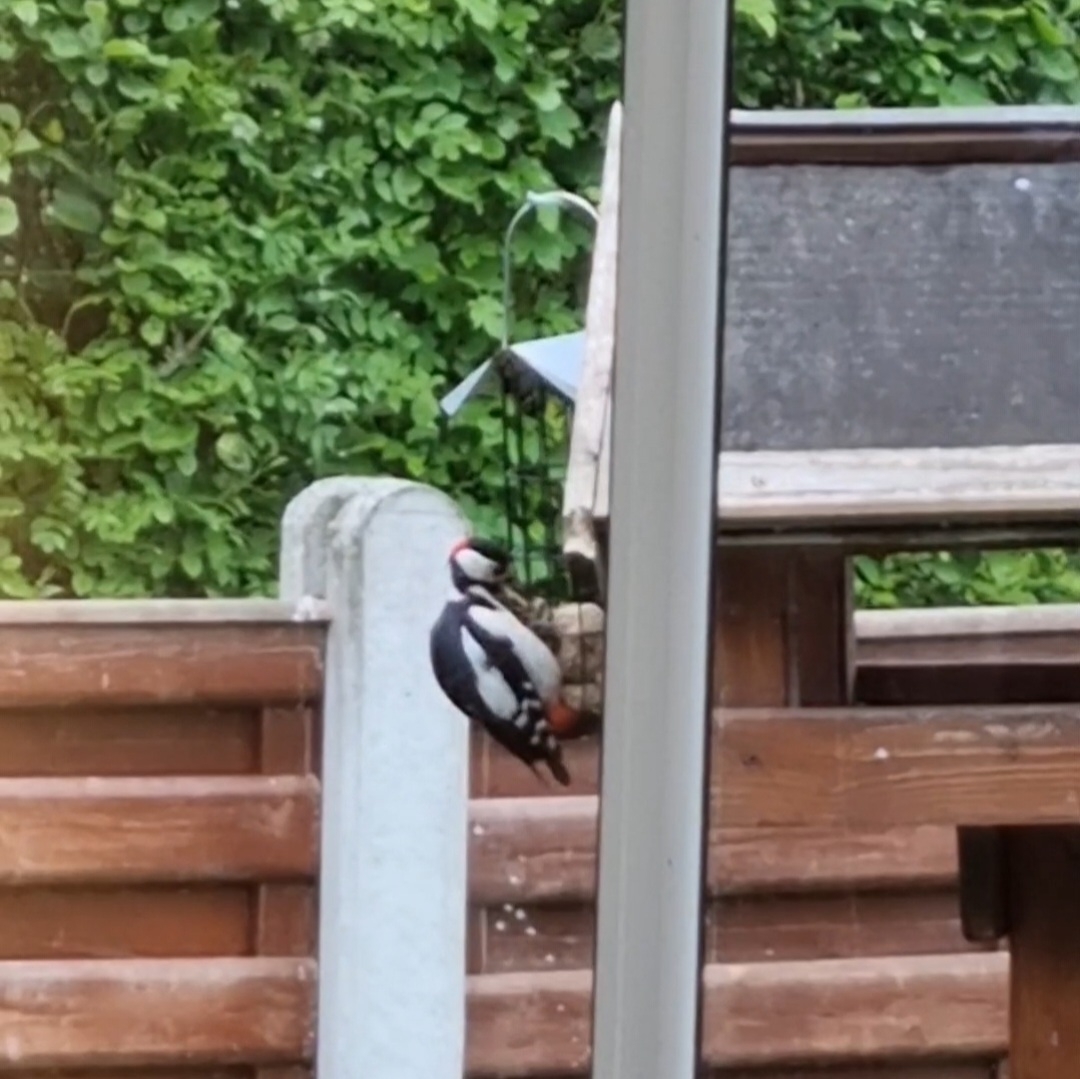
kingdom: Animalia
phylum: Chordata
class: Aves
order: Piciformes
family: Picidae
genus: Dendrocopos
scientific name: Dendrocopos major
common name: Stor flagspætte
